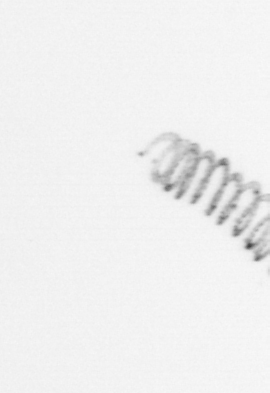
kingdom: Chromista
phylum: Ochrophyta
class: Bacillariophyceae
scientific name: Bacillariophyceae
